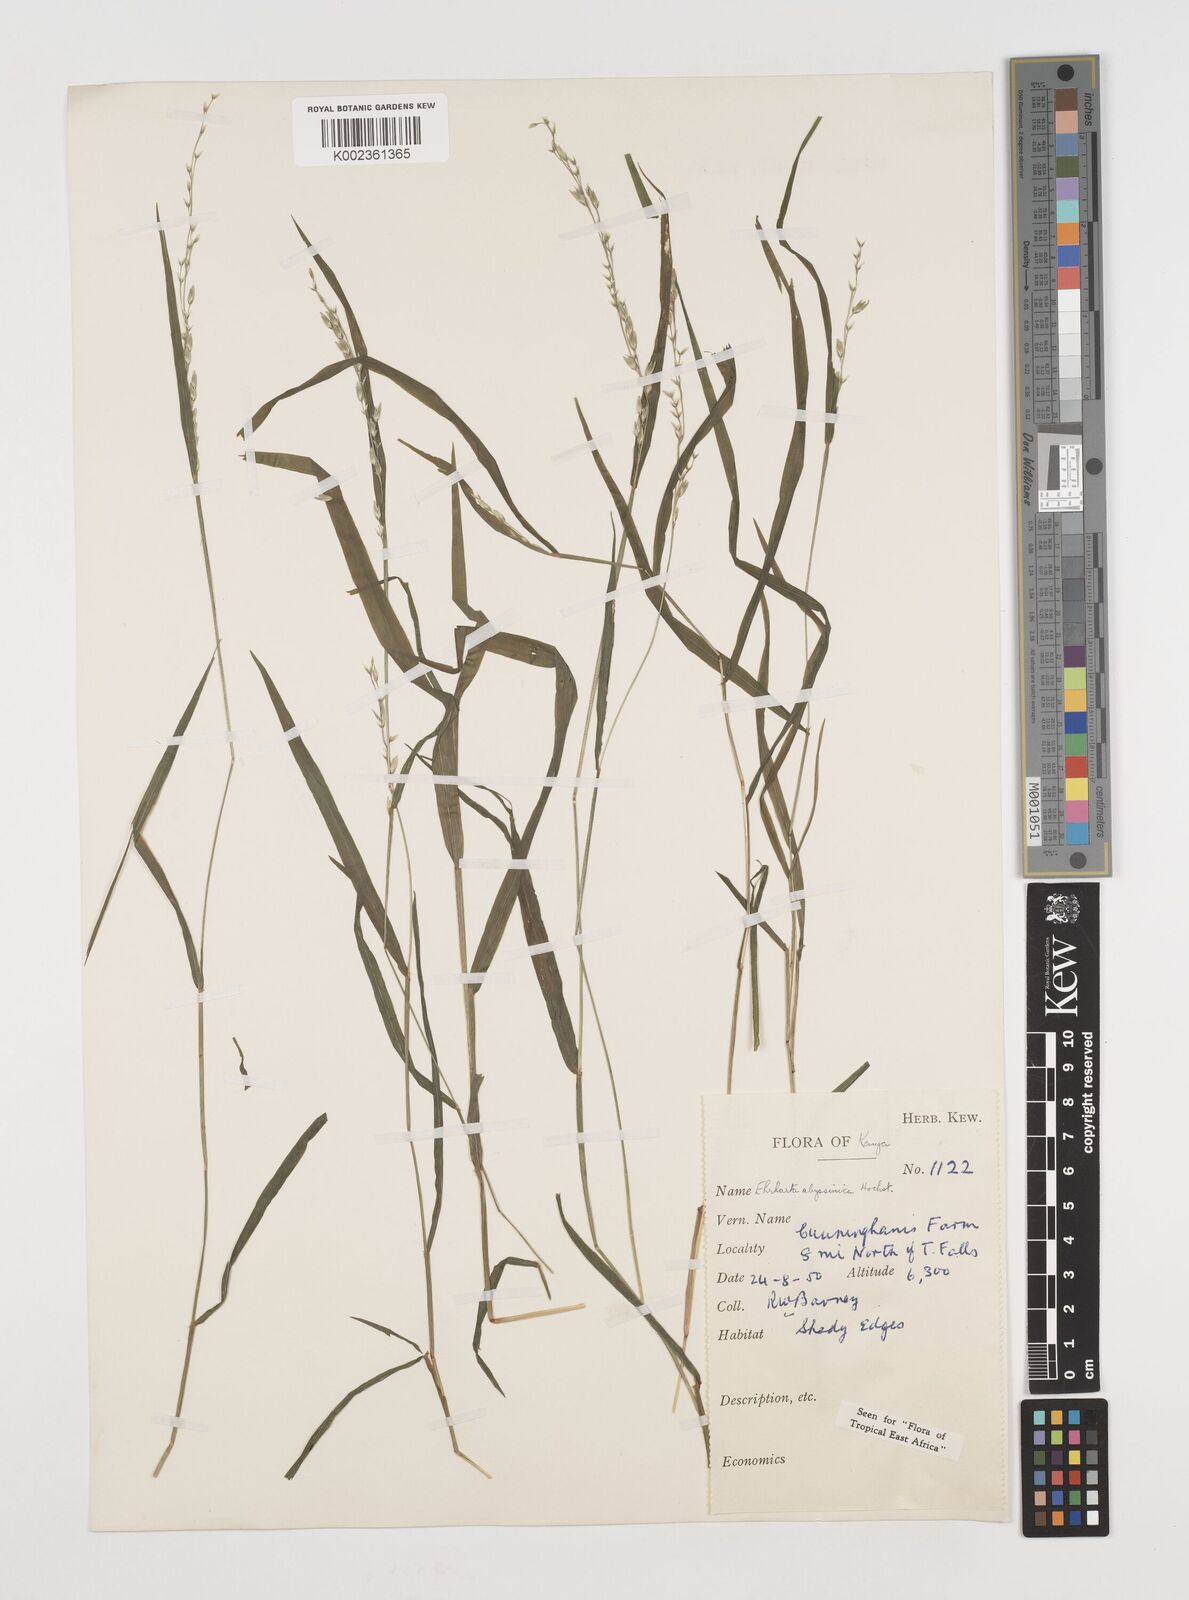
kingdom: Plantae
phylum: Tracheophyta
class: Liliopsida
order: Poales
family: Poaceae
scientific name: Poaceae
